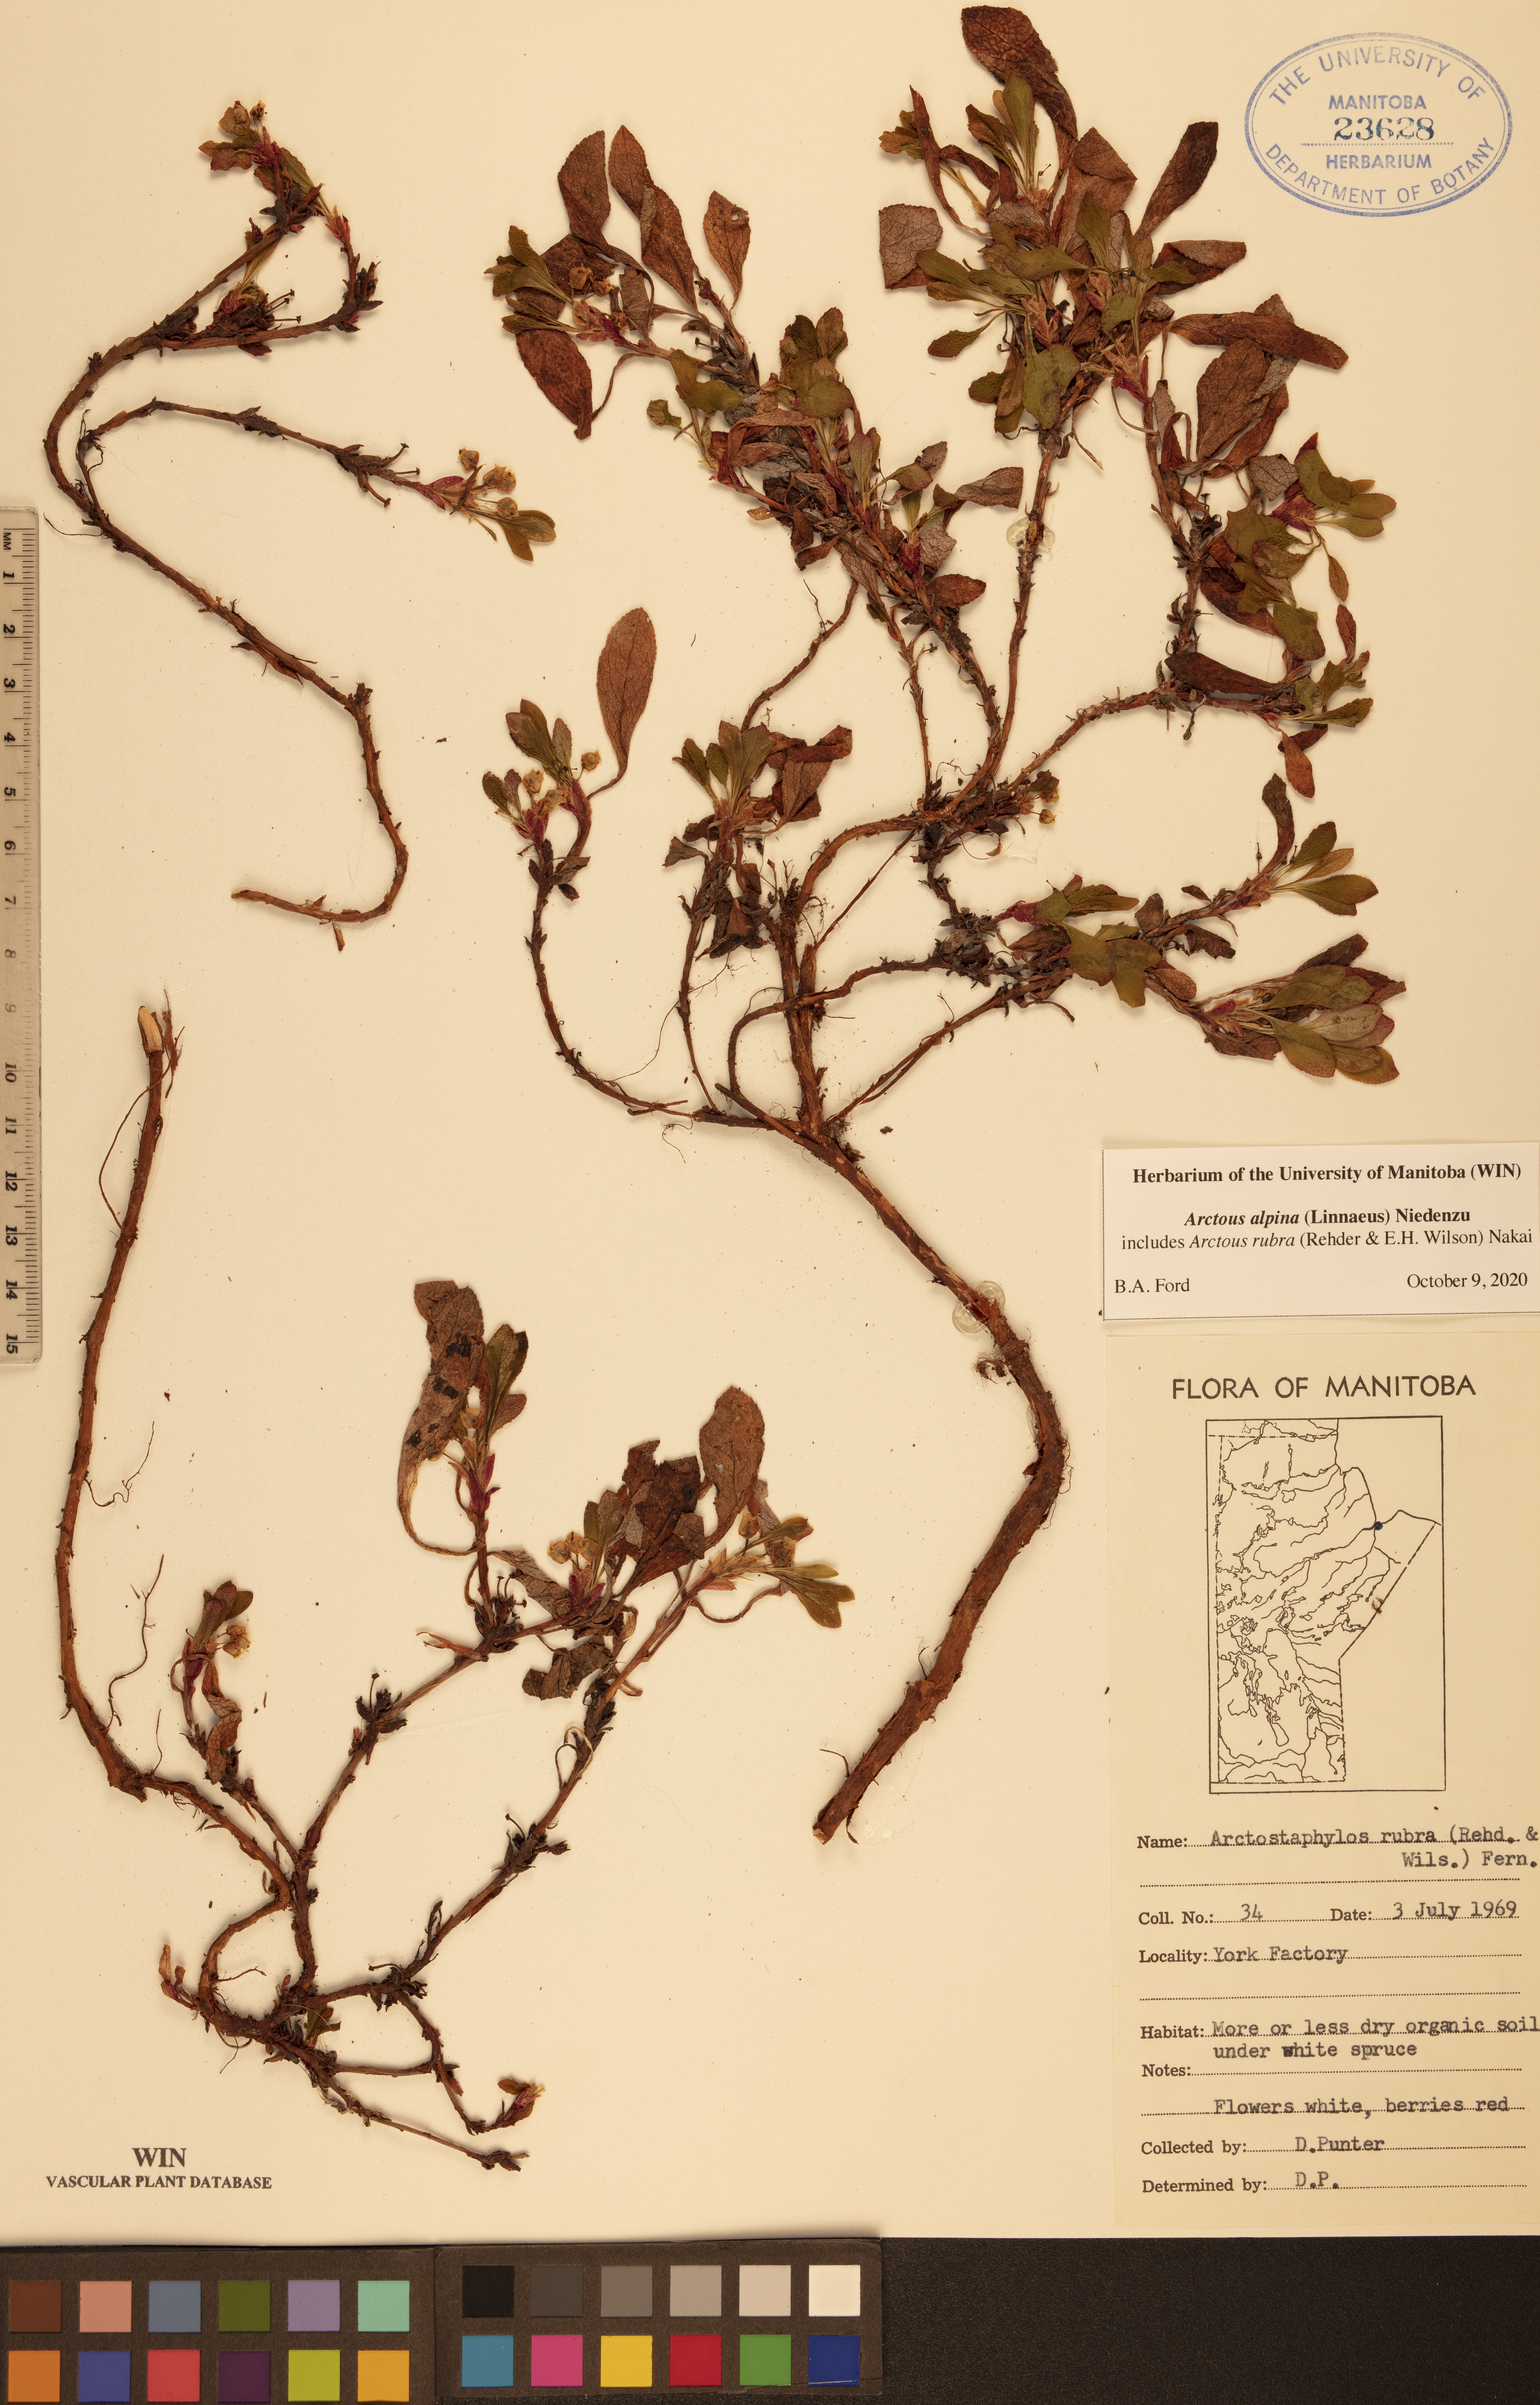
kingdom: Plantae
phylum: Tracheophyta
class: Magnoliopsida
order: Ericales
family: Ericaceae
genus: Arctostaphylos
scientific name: Arctostaphylos alpinus
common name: Alpine bearberry
